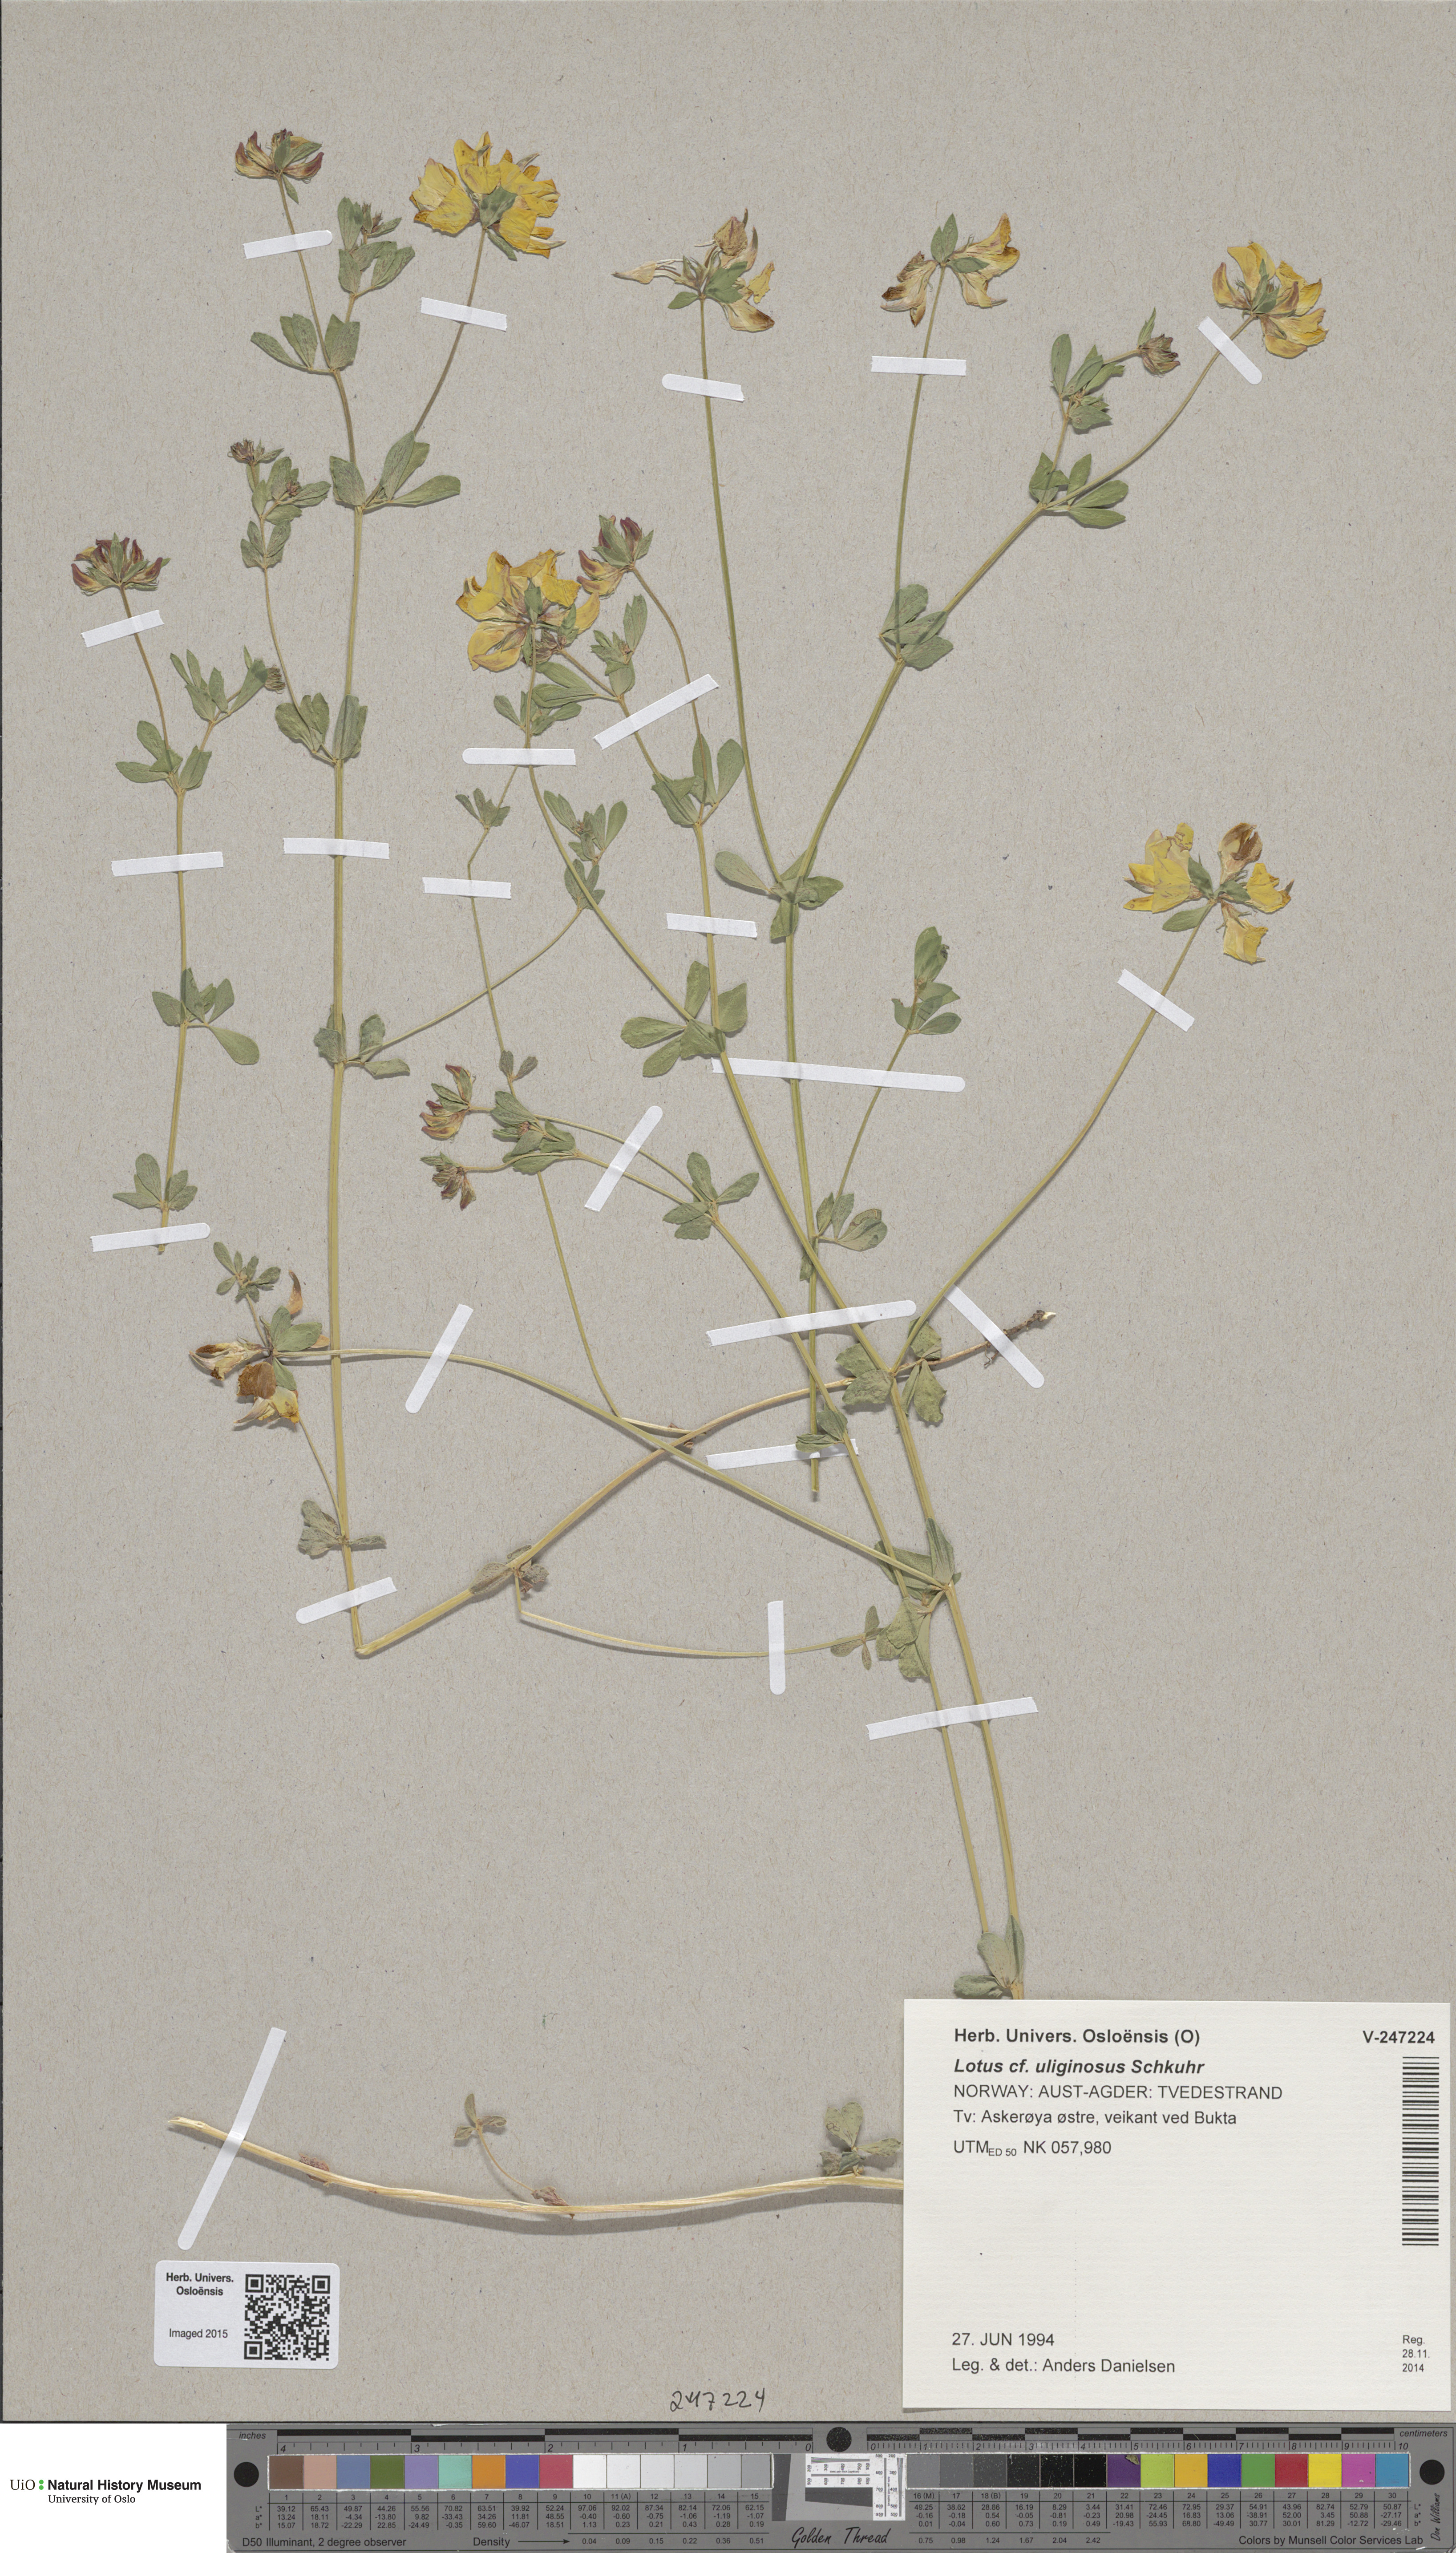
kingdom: Plantae
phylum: Tracheophyta
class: Magnoliopsida
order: Fabales
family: Fabaceae
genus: Lotus
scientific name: Lotus corniculatus
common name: Common bird's-foot-trefoil
